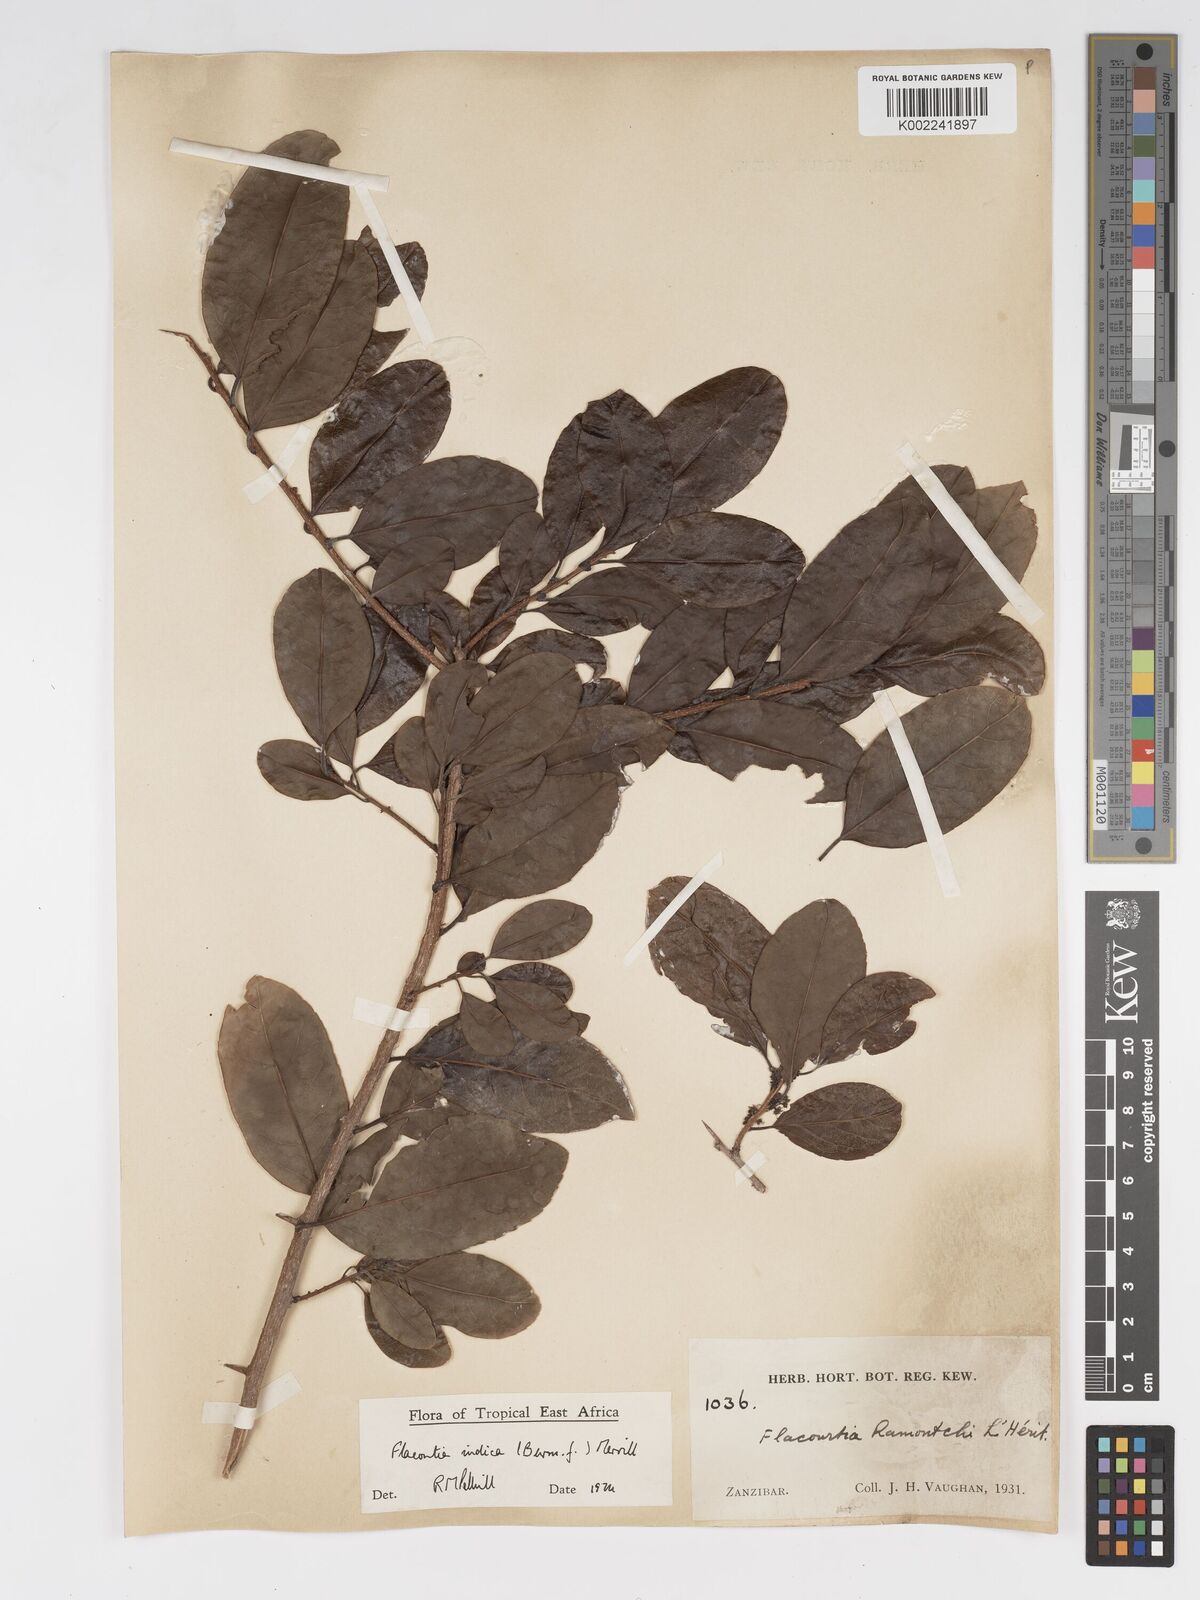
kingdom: Plantae
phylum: Tracheophyta
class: Magnoliopsida
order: Malpighiales
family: Salicaceae
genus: Flacourtia
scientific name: Flacourtia indica
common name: Governor's plum
